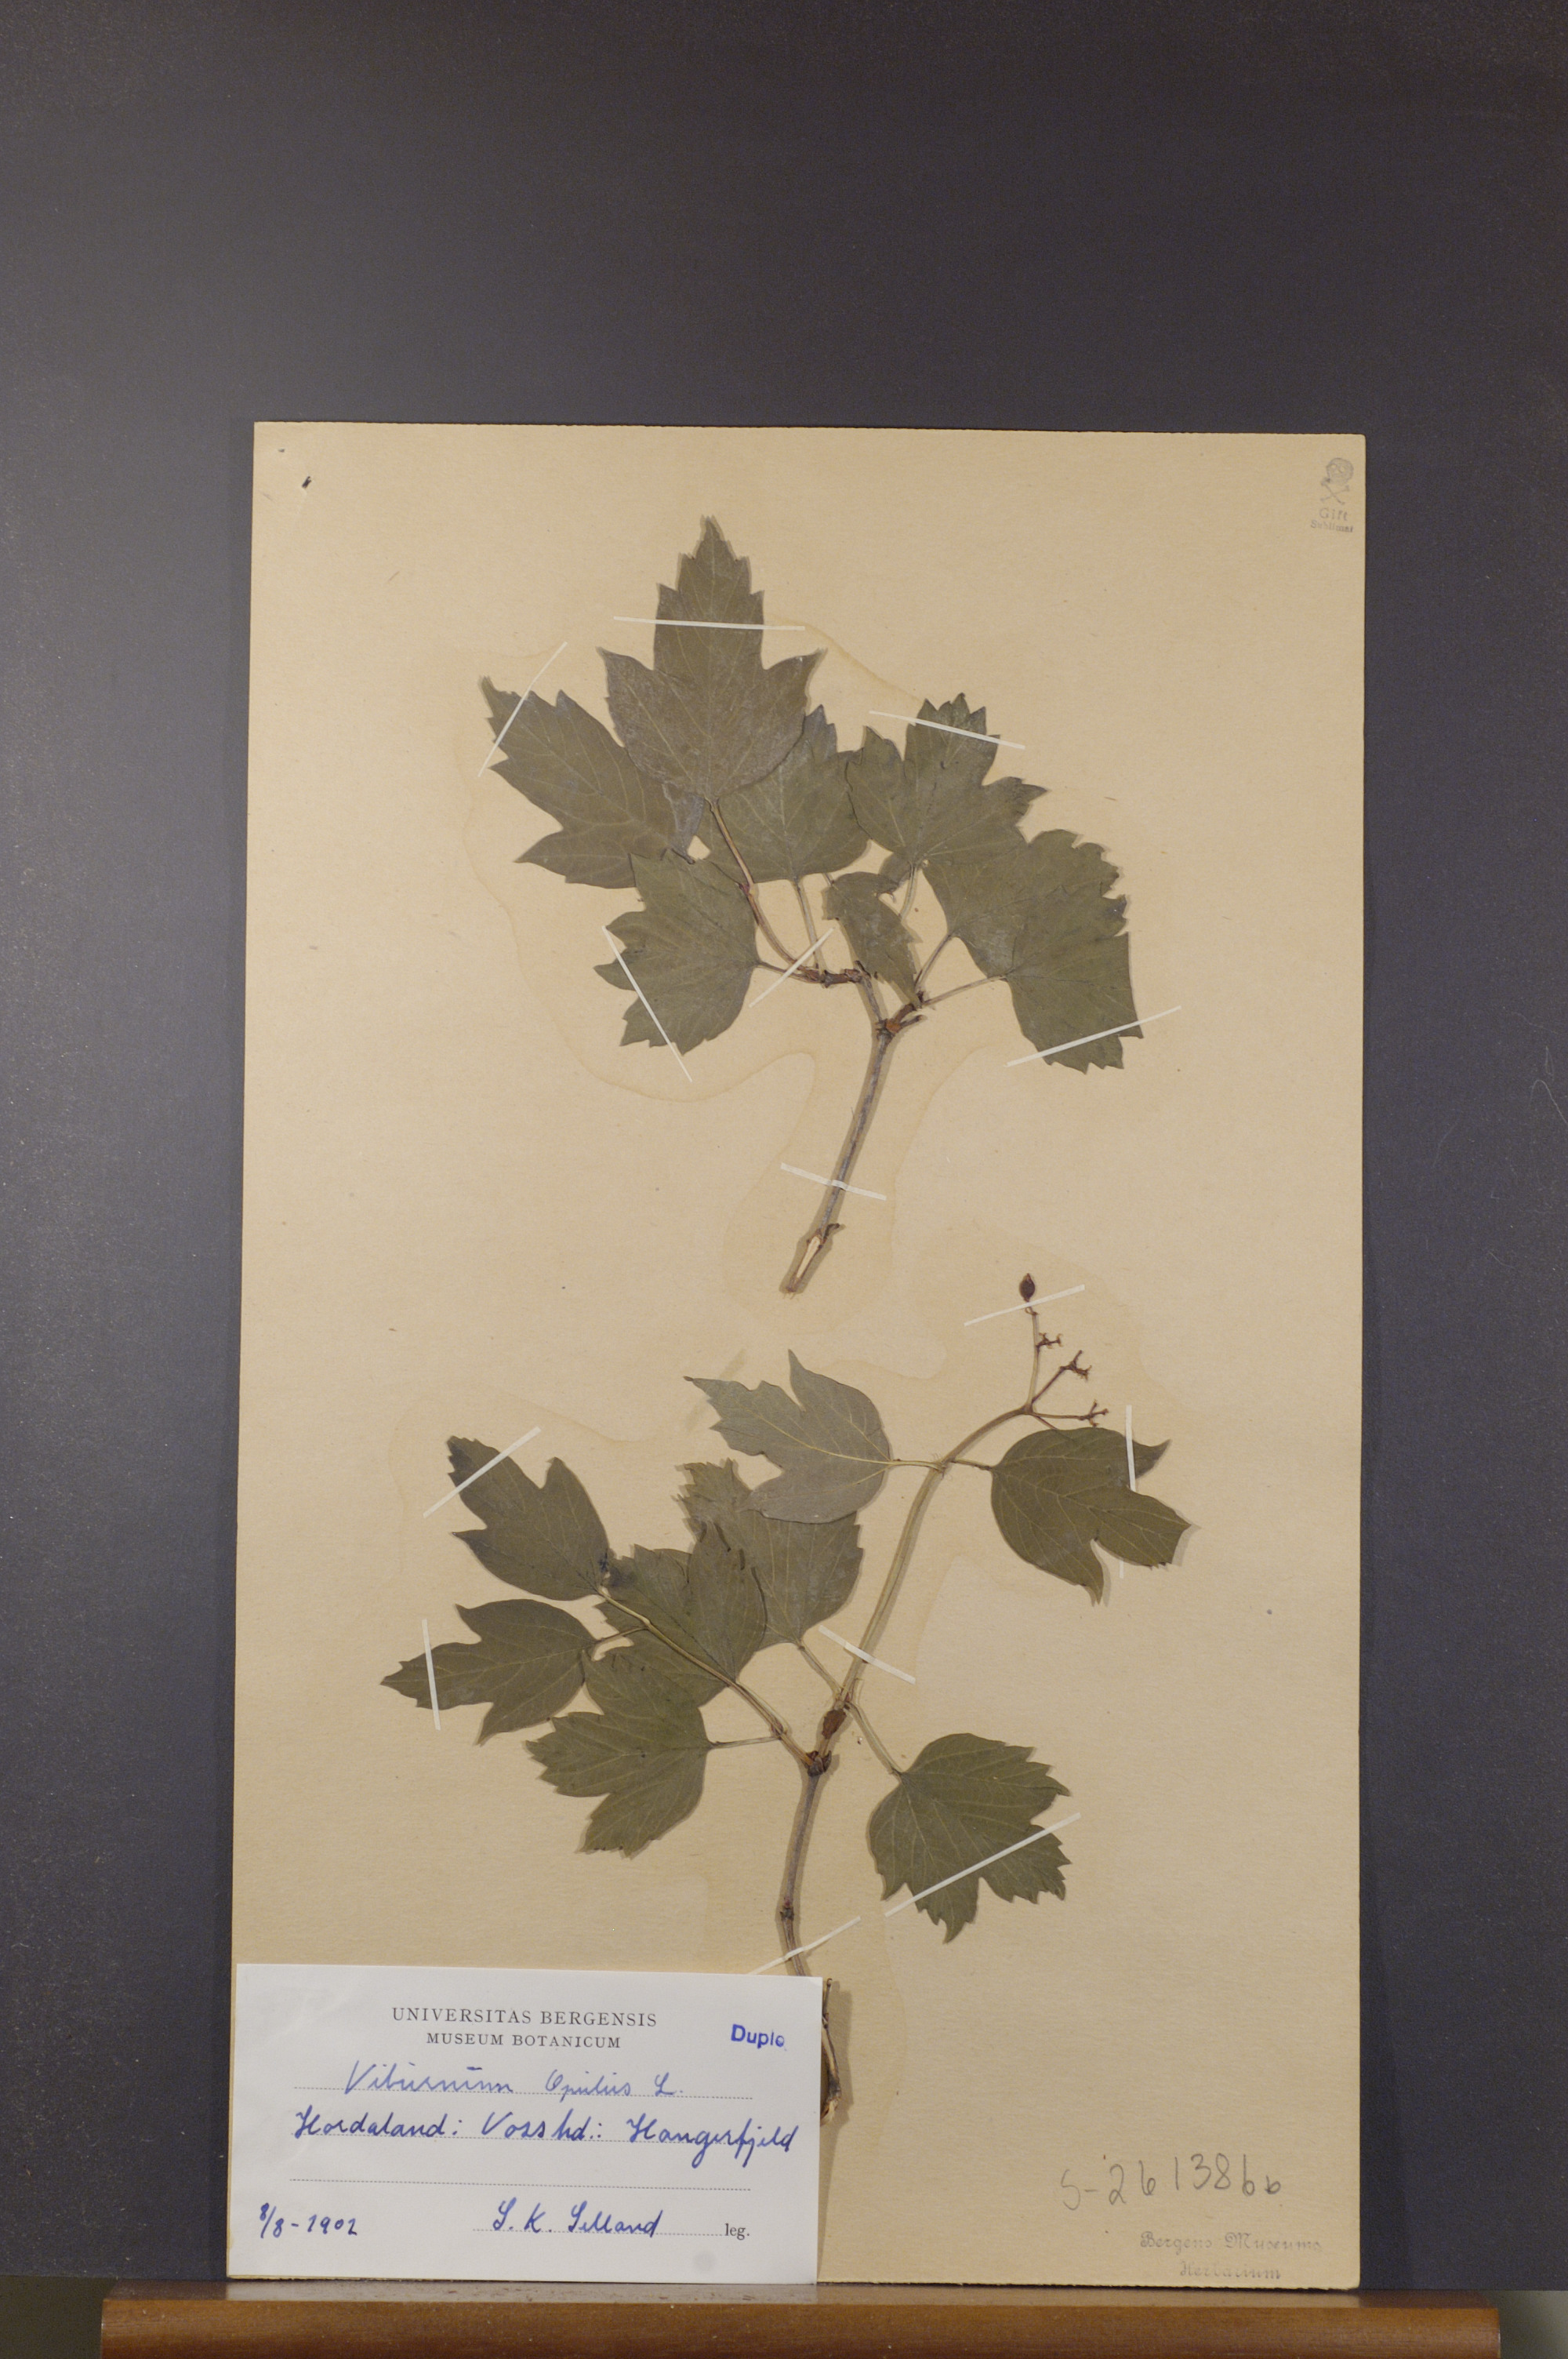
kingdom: Plantae
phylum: Tracheophyta
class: Magnoliopsida
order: Dipsacales
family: Viburnaceae
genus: Viburnum
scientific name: Viburnum opulus
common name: Guelder-rose
